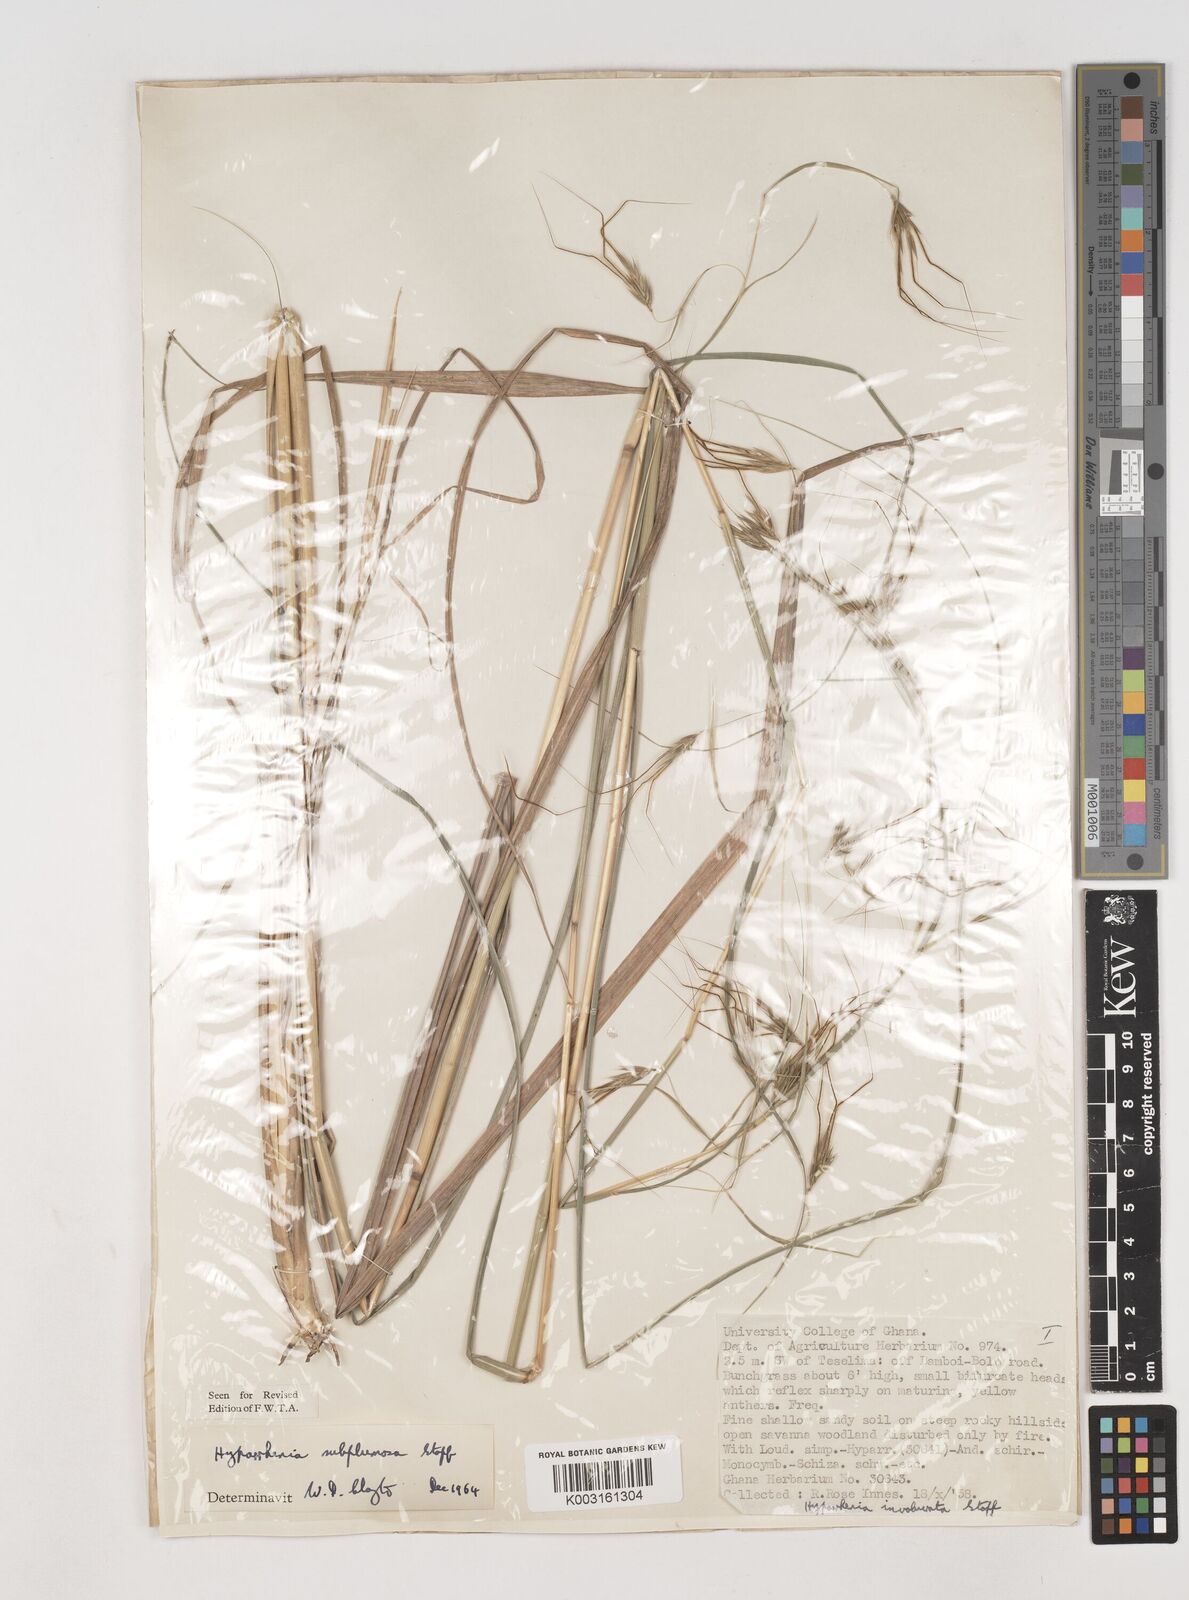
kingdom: Plantae
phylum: Tracheophyta
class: Liliopsida
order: Poales
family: Poaceae
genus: Hyparrhenia
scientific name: Hyparrhenia subplumosa
